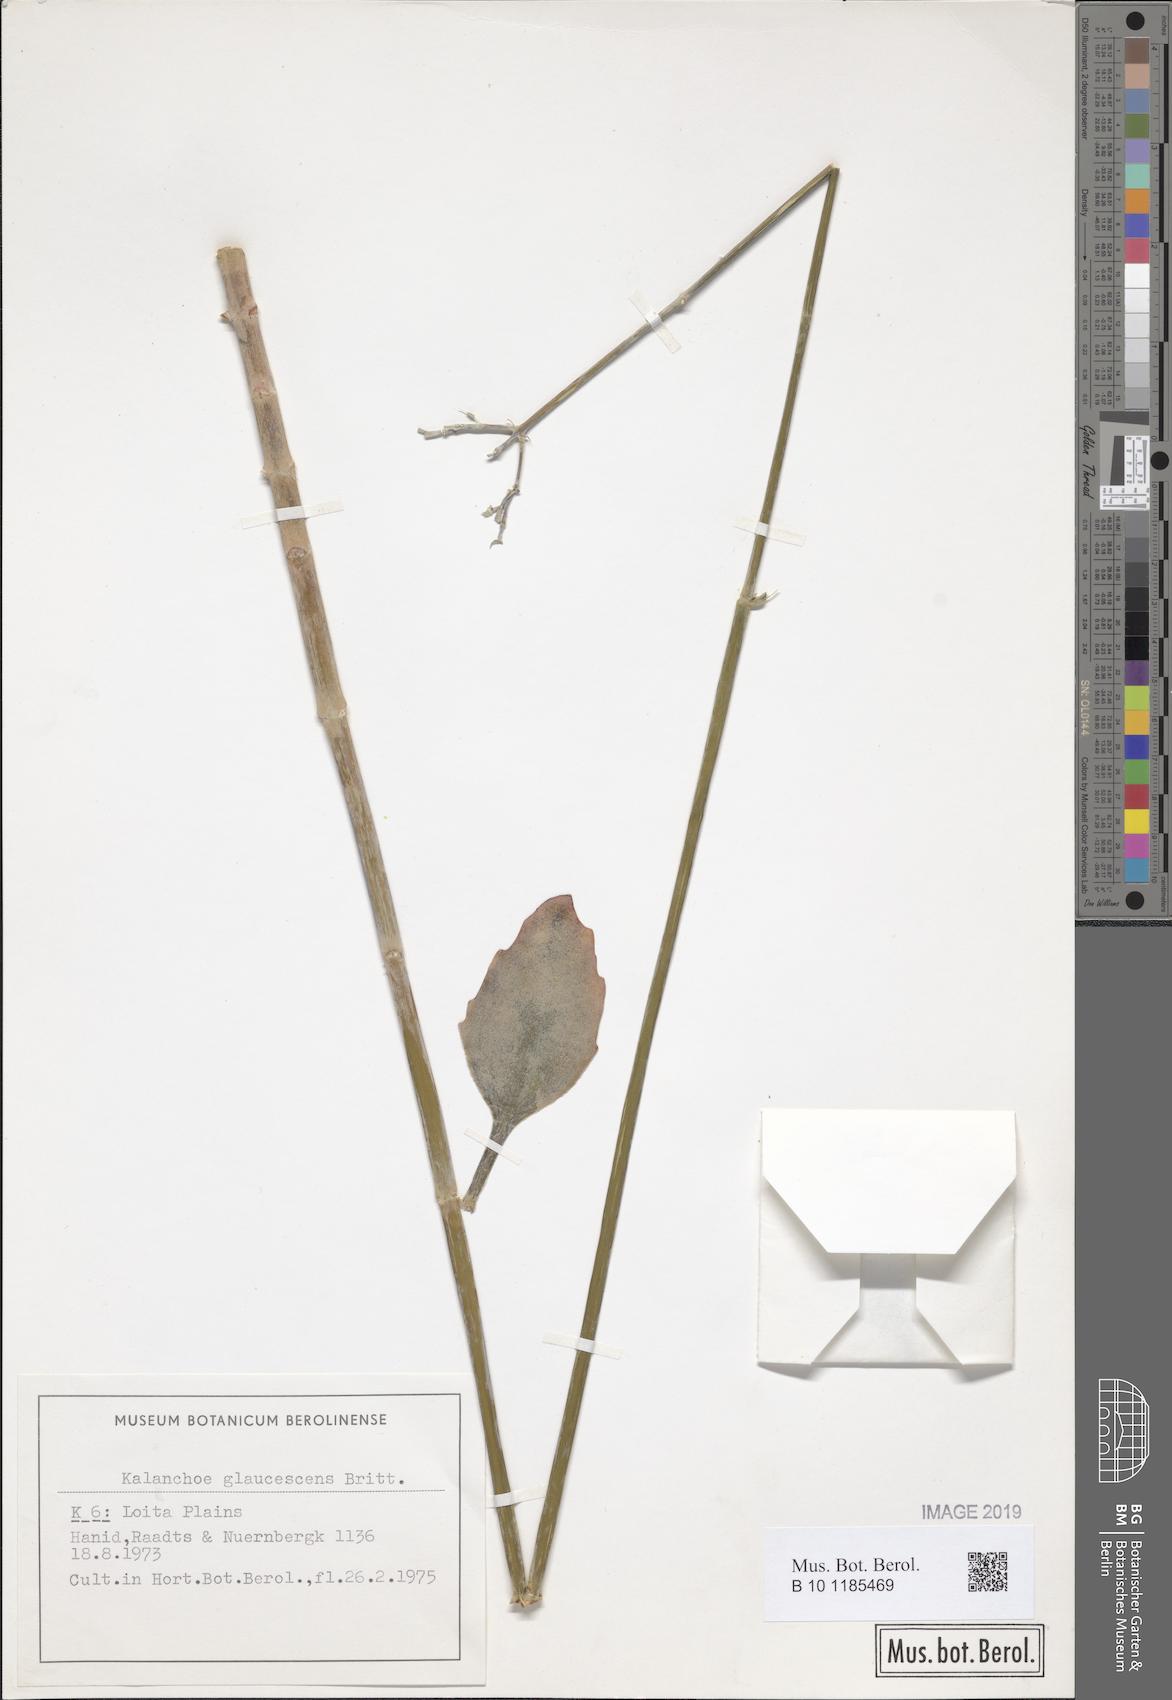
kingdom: Plantae
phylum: Tracheophyta
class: Magnoliopsida
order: Saxifragales
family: Crassulaceae
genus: Kalanchoe
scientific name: Kalanchoe glaucescens
